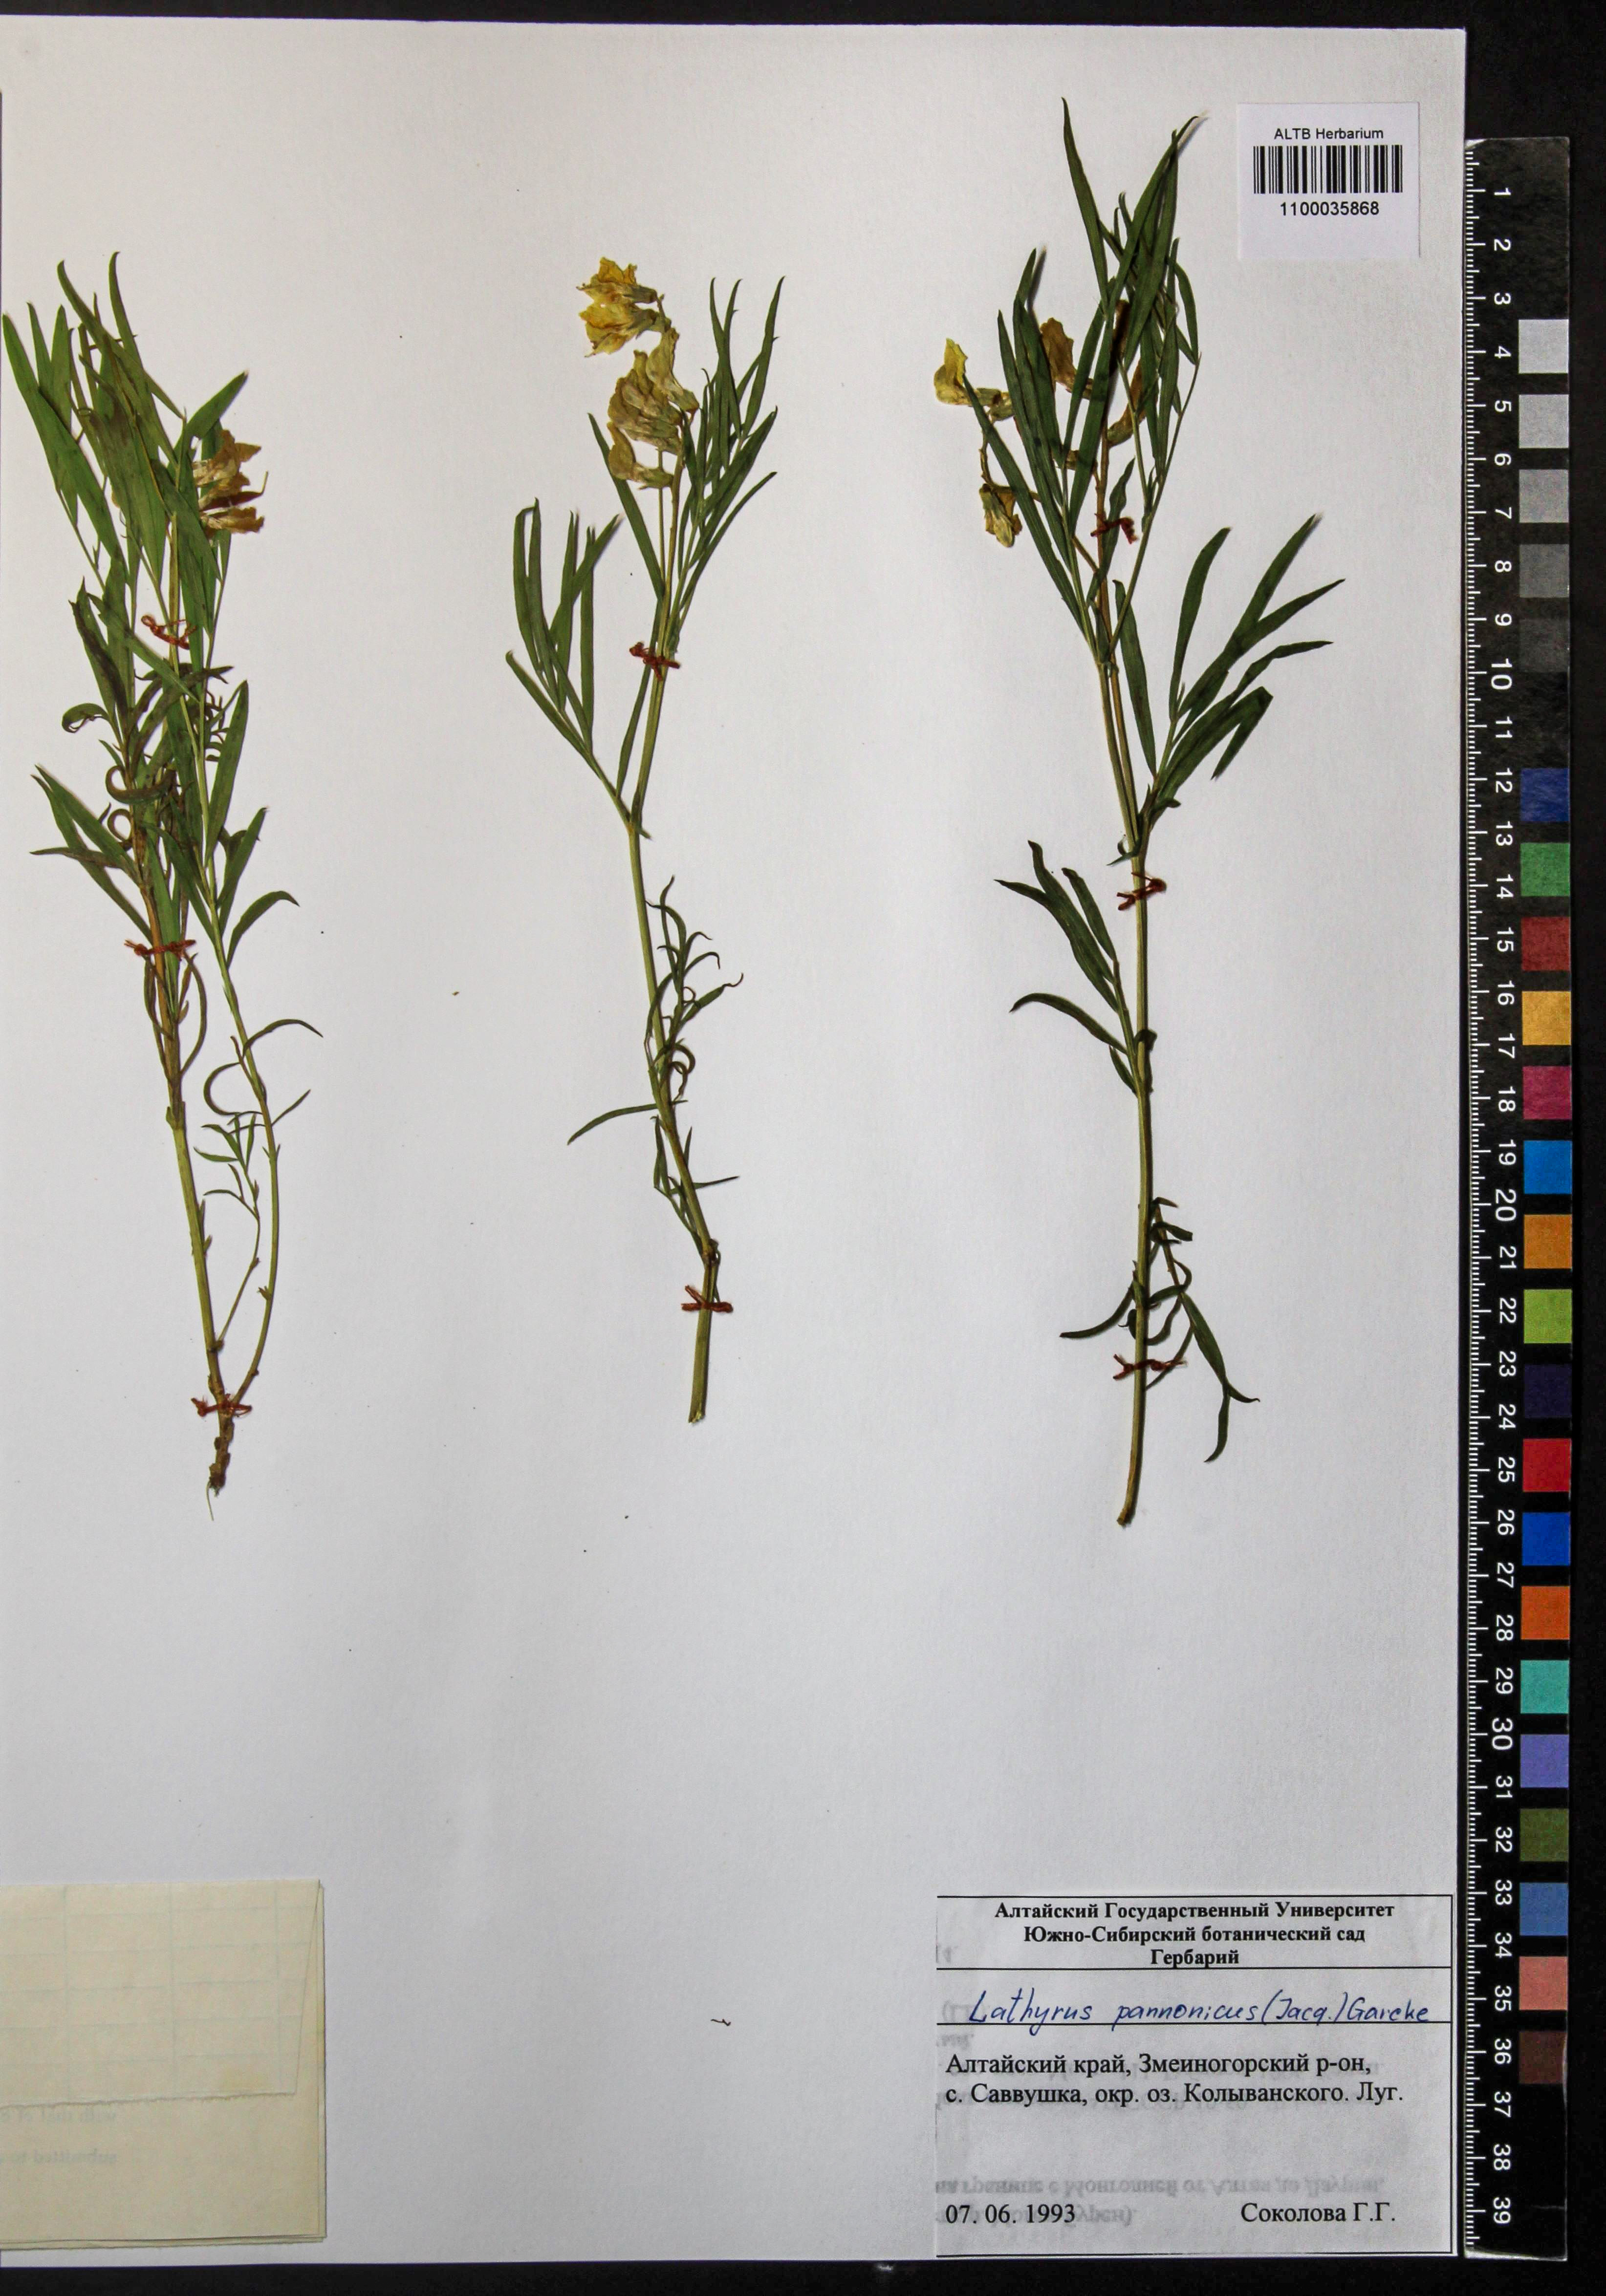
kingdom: Plantae
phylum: Tracheophyta
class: Magnoliopsida
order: Fabales
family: Fabaceae
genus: Lathyrus
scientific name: Lathyrus pannonicus
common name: Pea
